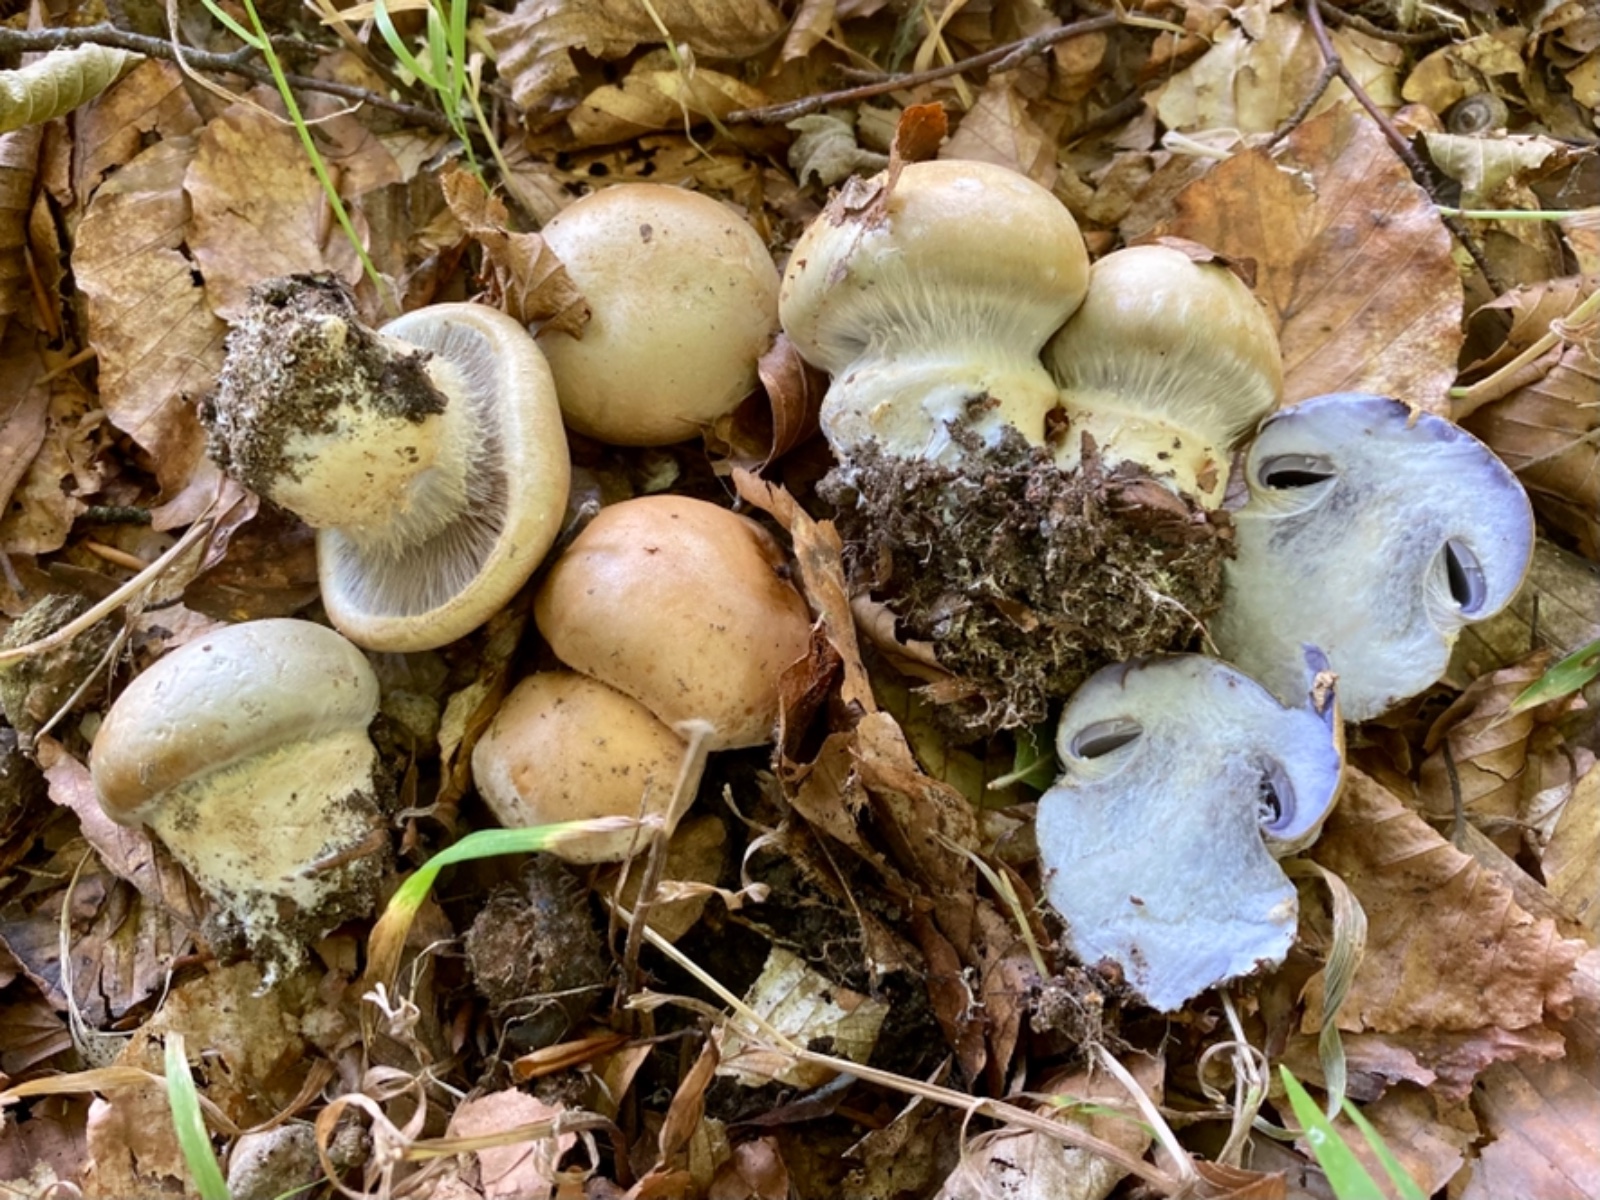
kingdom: Fungi
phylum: Basidiomycota
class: Agaricomycetes
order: Agaricales
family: Cortinariaceae
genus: Cortinarius
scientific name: Cortinarius anserinus
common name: bøge-slørhat
